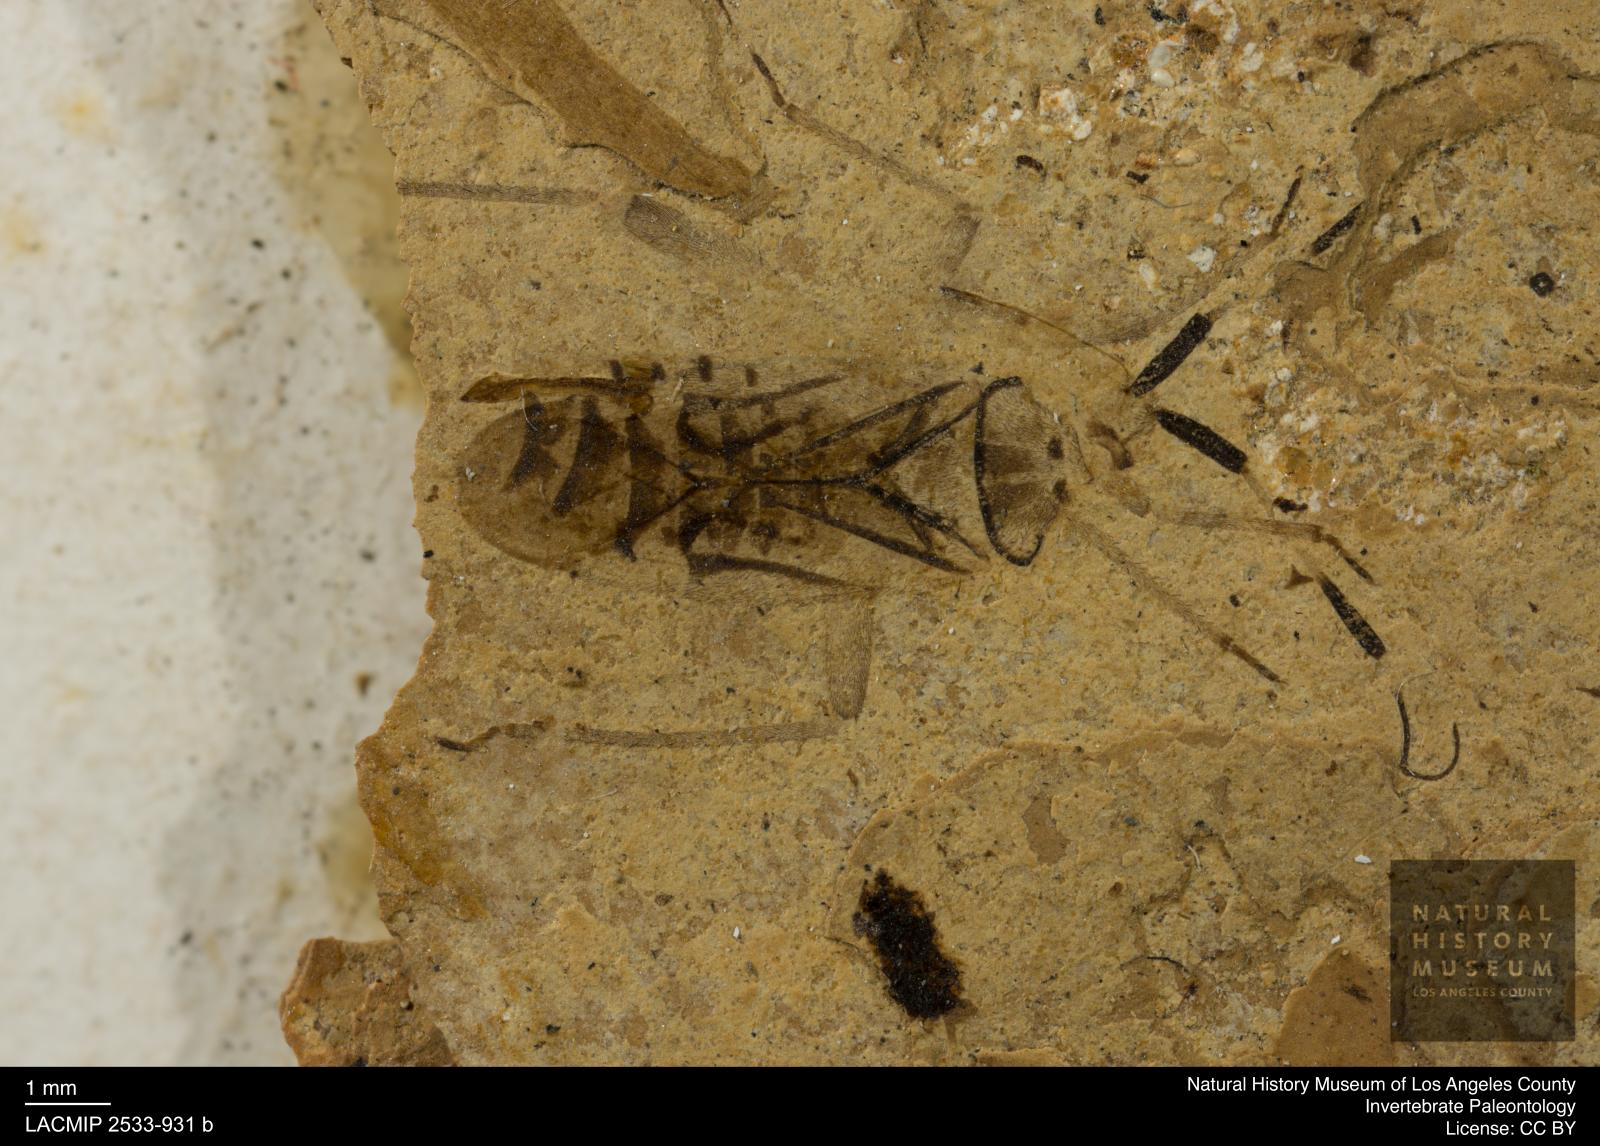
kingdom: Animalia
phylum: Arthropoda
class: Insecta
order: Hemiptera
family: Miridae
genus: Mermitelocerus
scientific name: Mermitelocerus Calocoris antennatus
